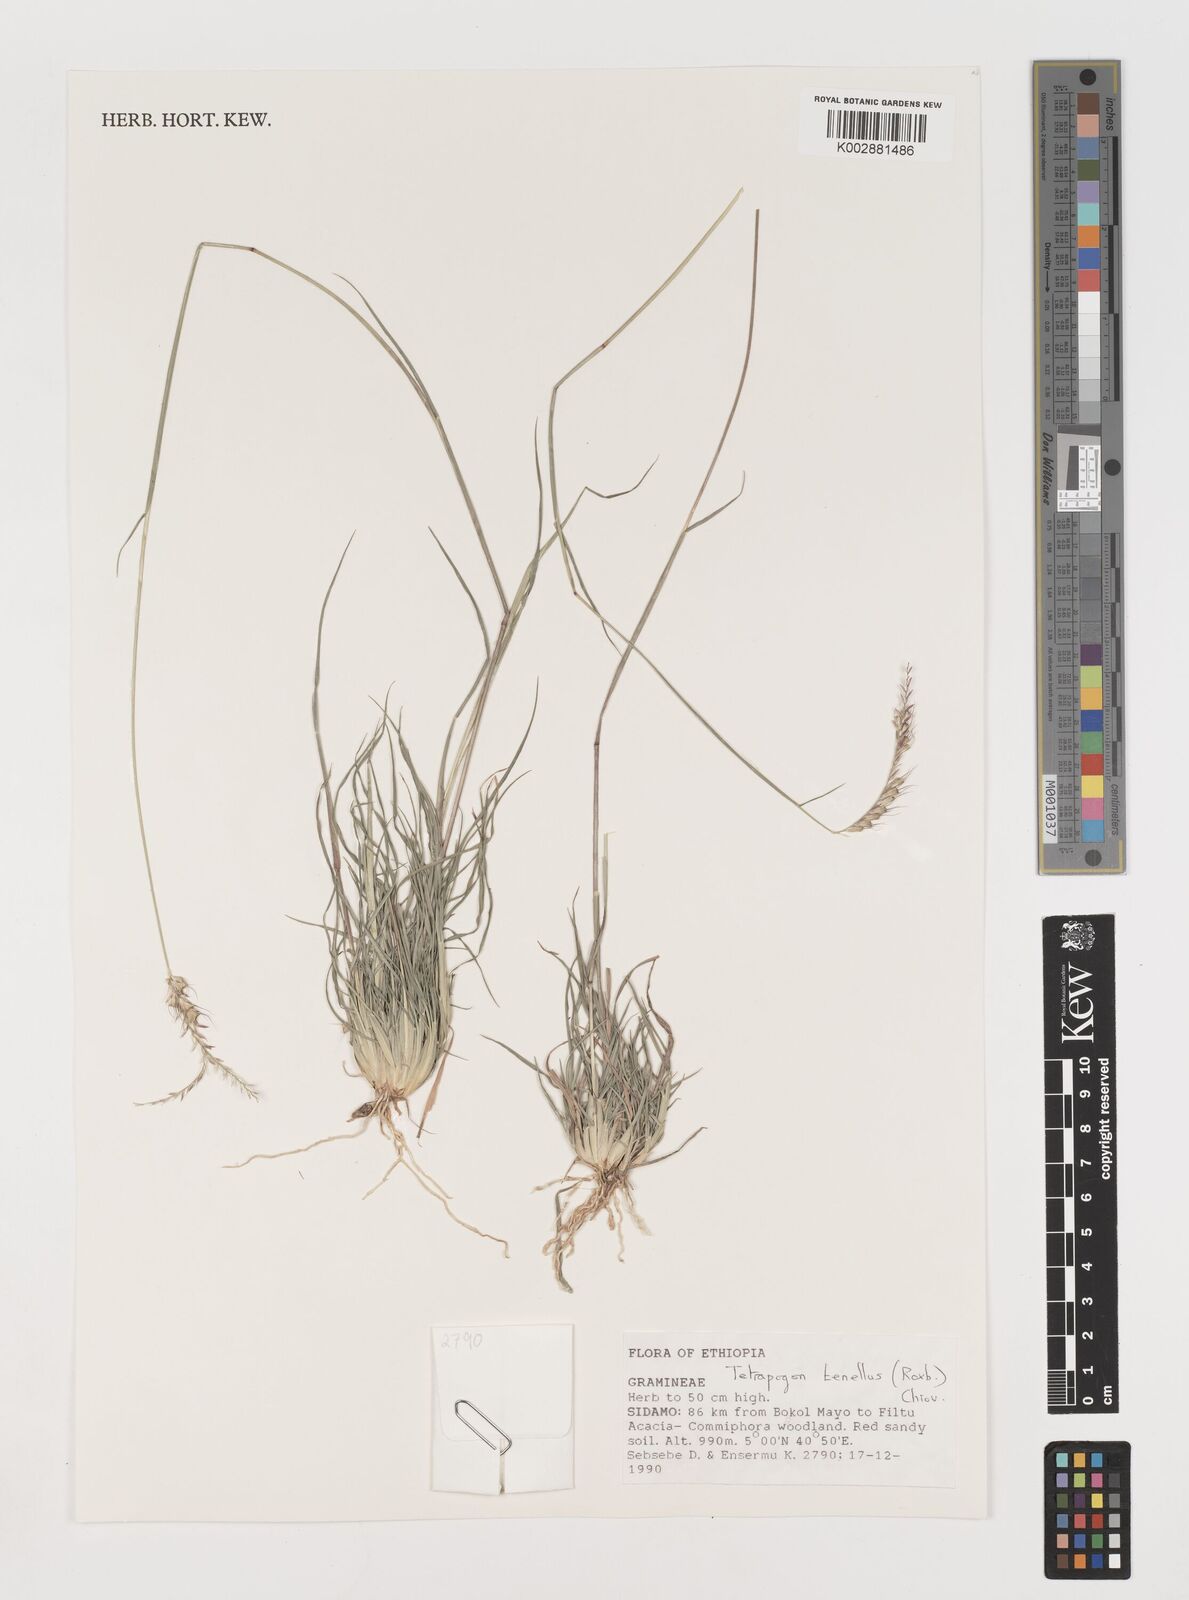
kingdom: Plantae
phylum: Tracheophyta
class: Liliopsida
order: Poales
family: Poaceae
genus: Tetrapogon
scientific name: Tetrapogon tenellus
